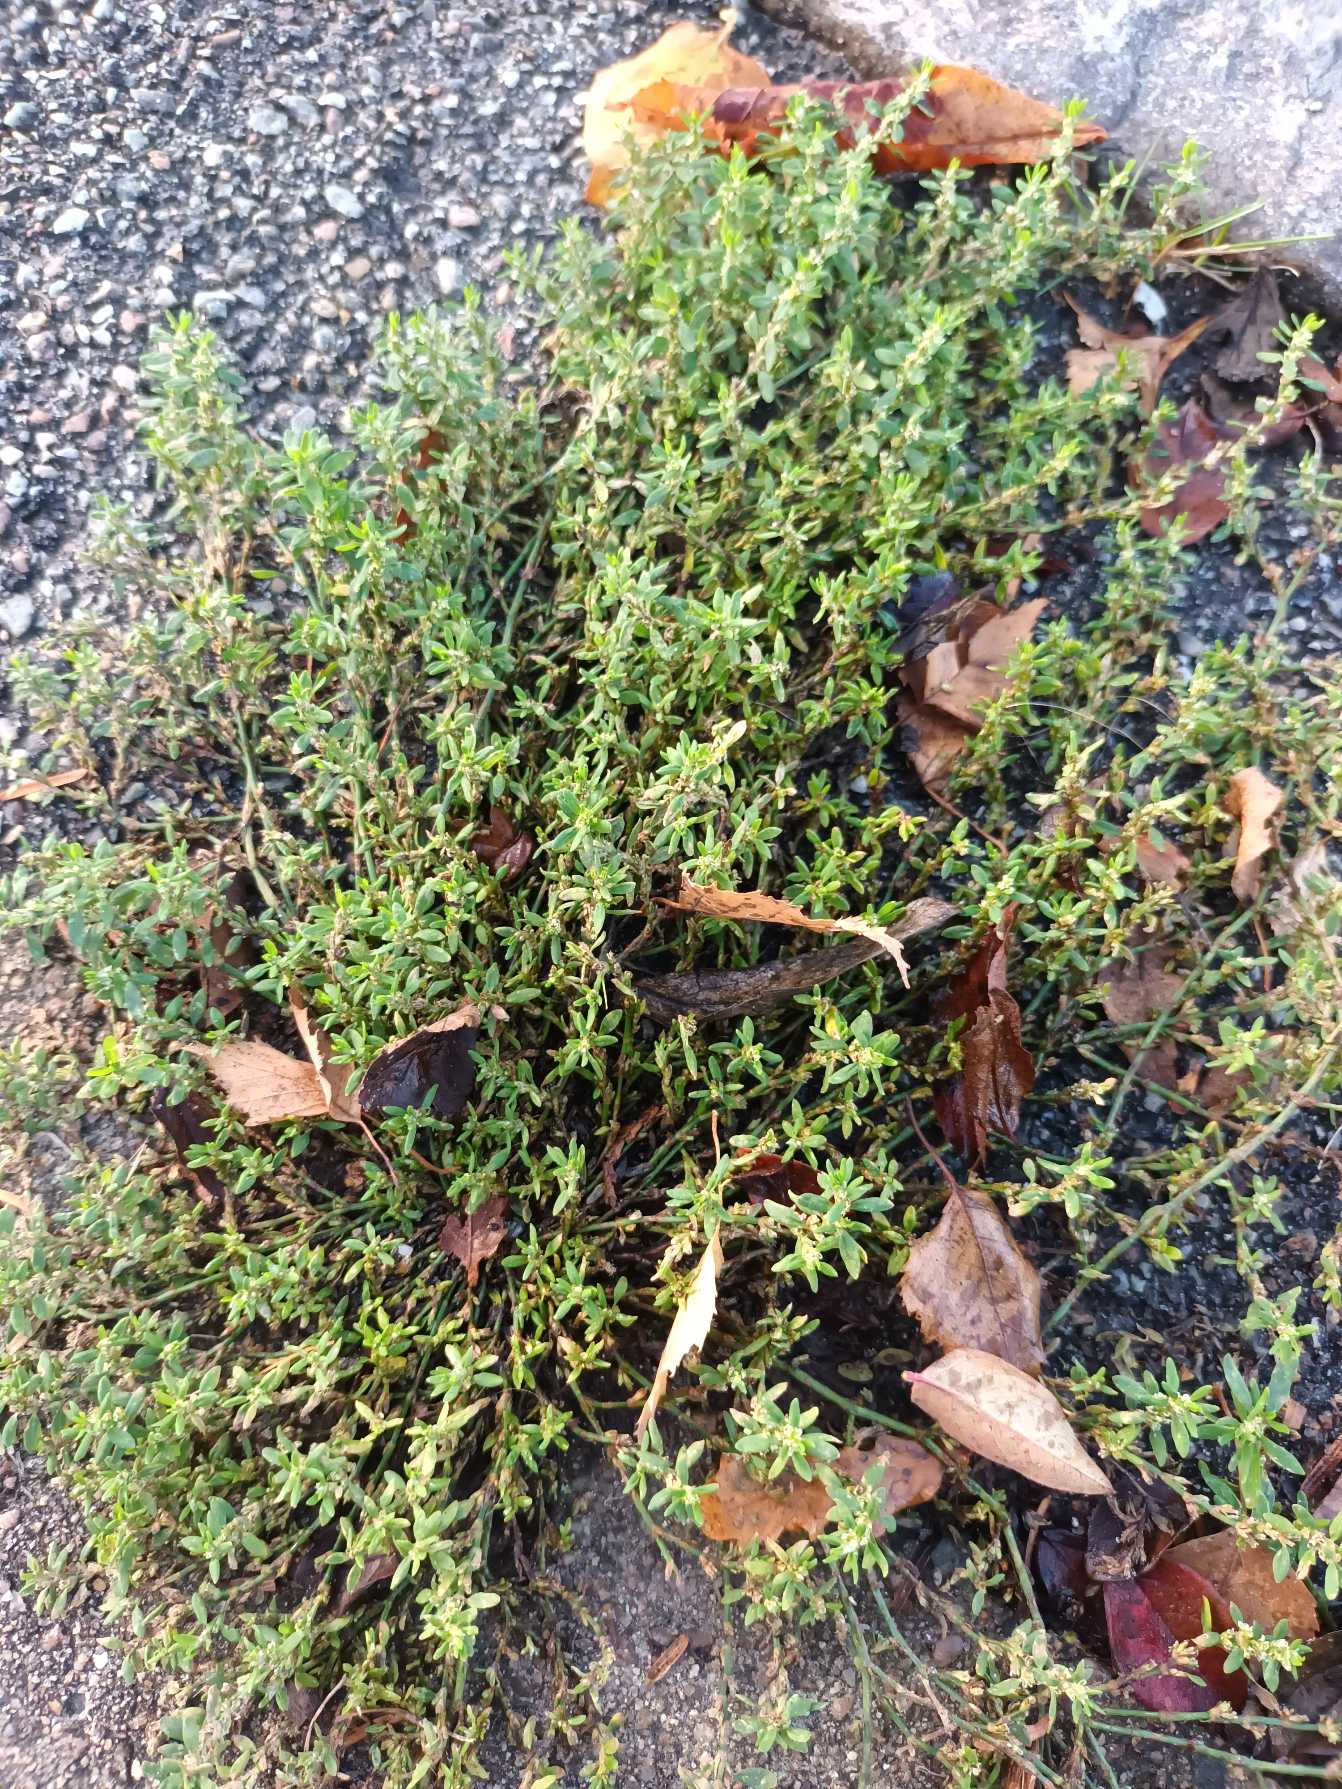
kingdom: Plantae
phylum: Tracheophyta
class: Magnoliopsida
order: Caryophyllales
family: Polygonaceae
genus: Polygonum
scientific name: Polygonum arenastrum
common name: Liggende vej-pileurt
